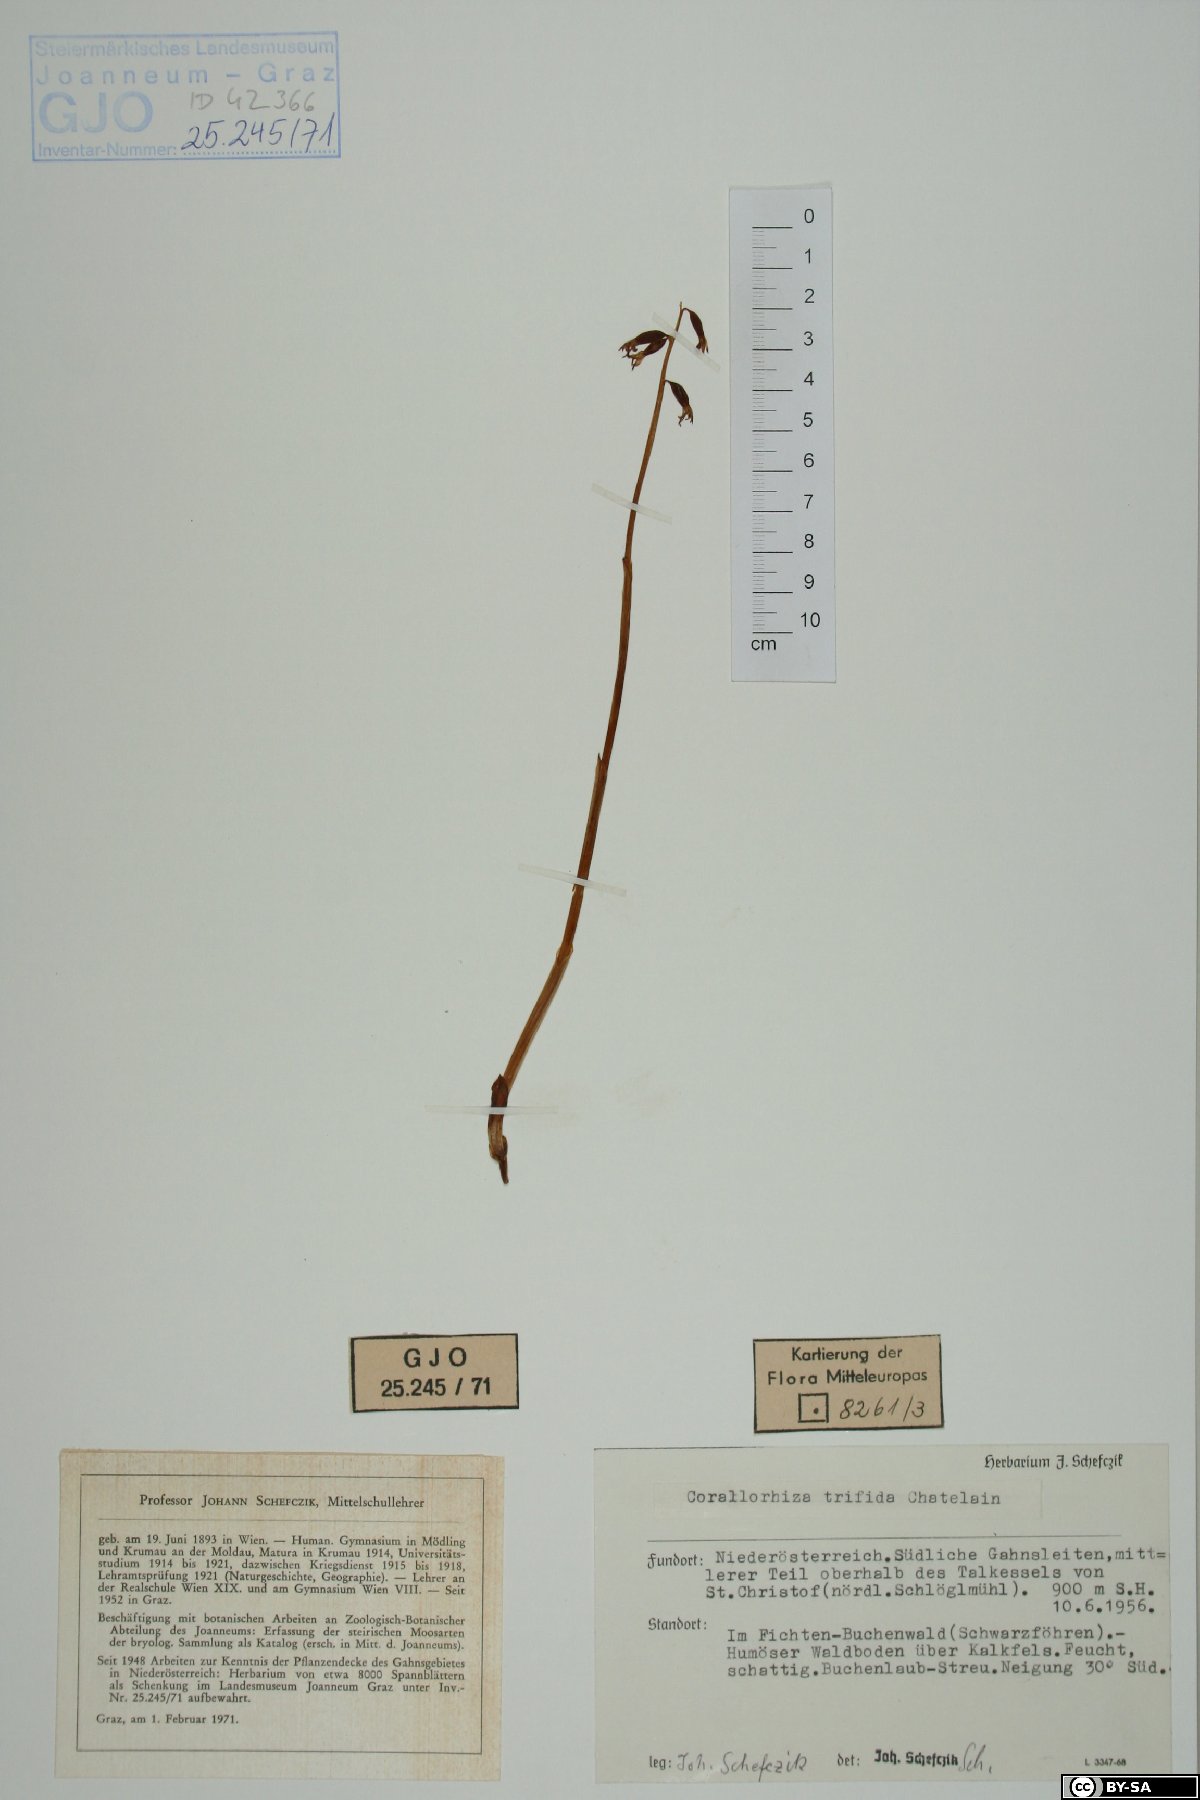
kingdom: Plantae
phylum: Tracheophyta
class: Liliopsida
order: Asparagales
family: Orchidaceae
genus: Corallorhiza
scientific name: Corallorhiza trifida
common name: Yellow coralroot
